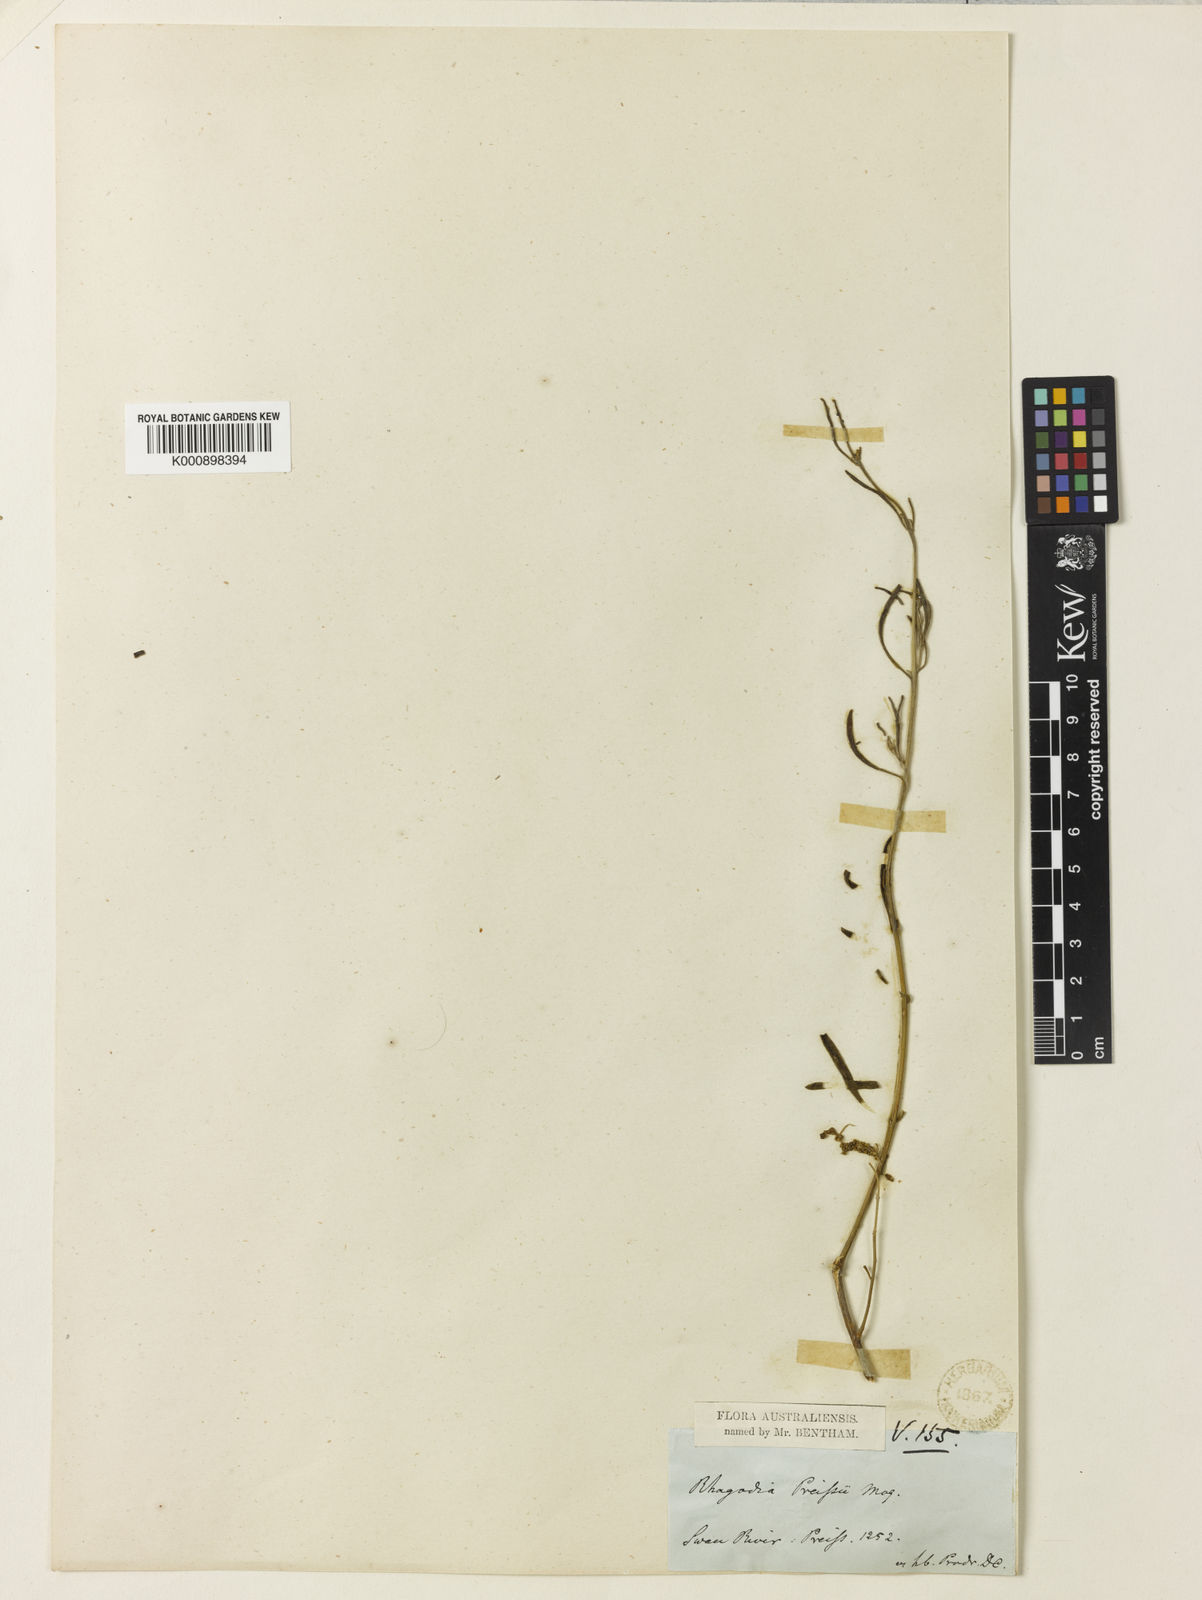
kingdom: Plantae
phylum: Tracheophyta
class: Magnoliopsida
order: Caryophyllales
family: Amaranthaceae
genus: Chenopodium
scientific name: Chenopodium preissii
